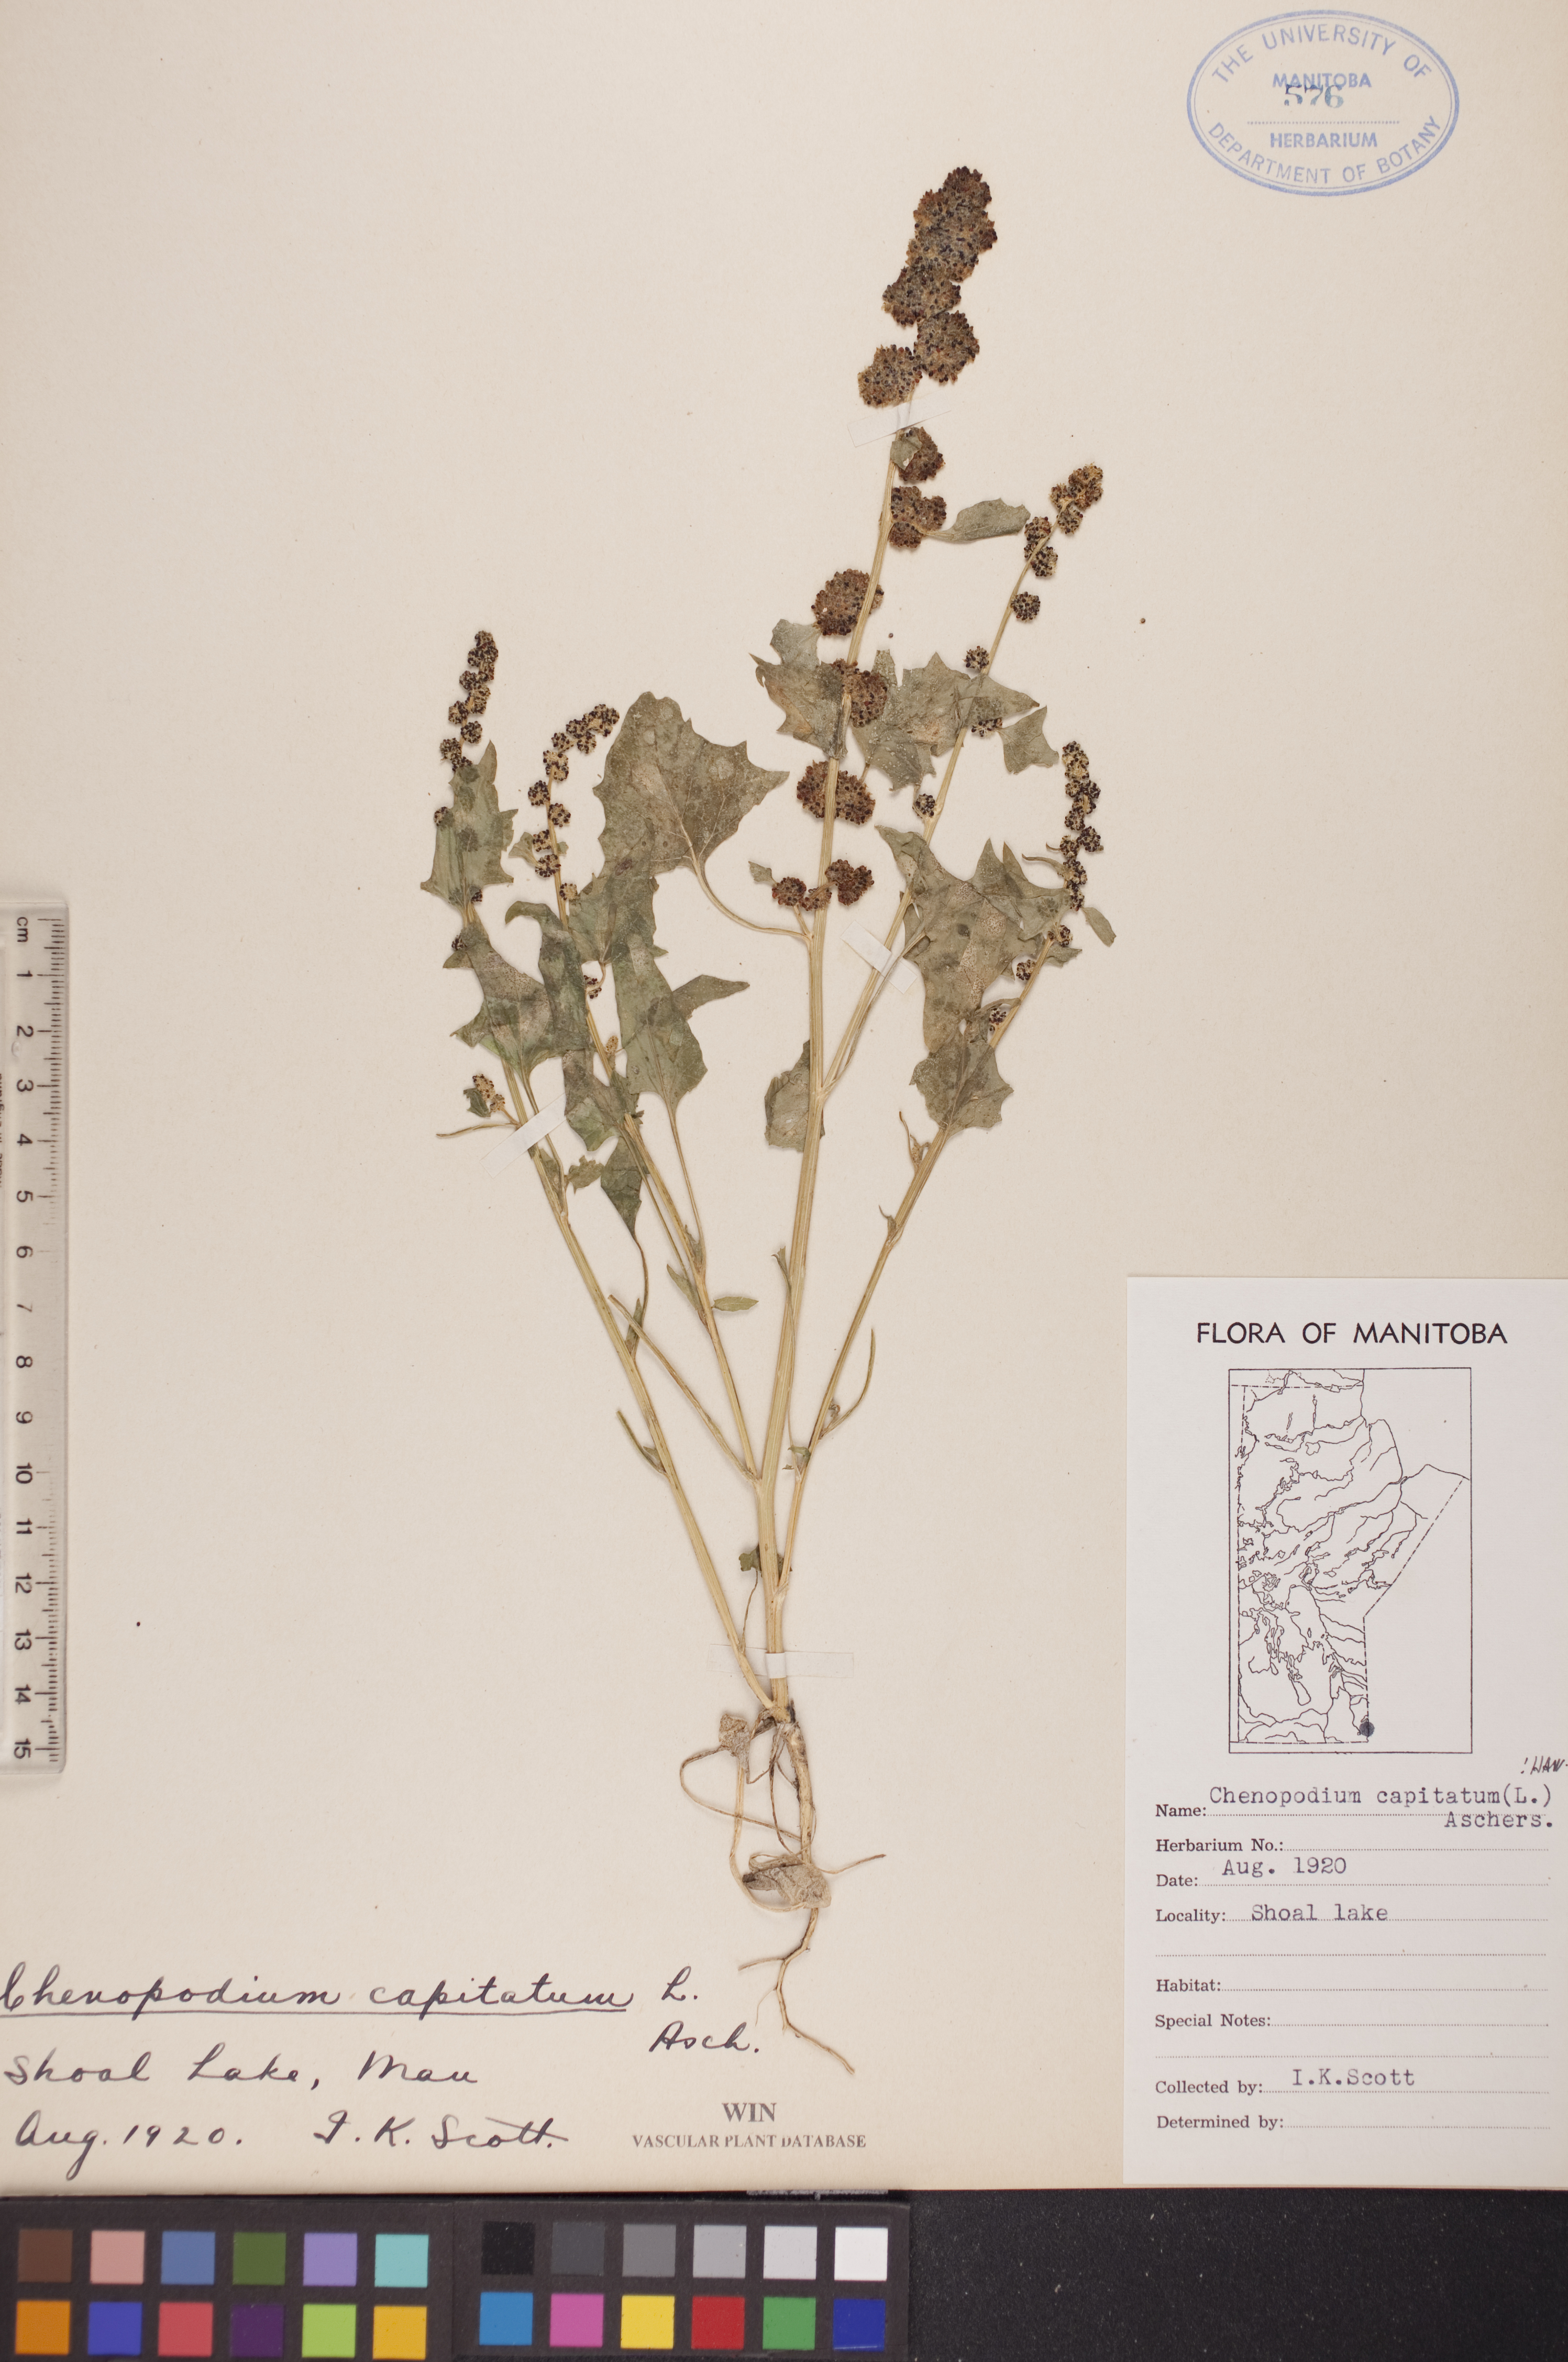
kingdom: Plantae
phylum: Tracheophyta
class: Magnoliopsida
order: Caryophyllales
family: Amaranthaceae
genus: Blitum
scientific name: Blitum capitatum
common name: Strawberry-blight
